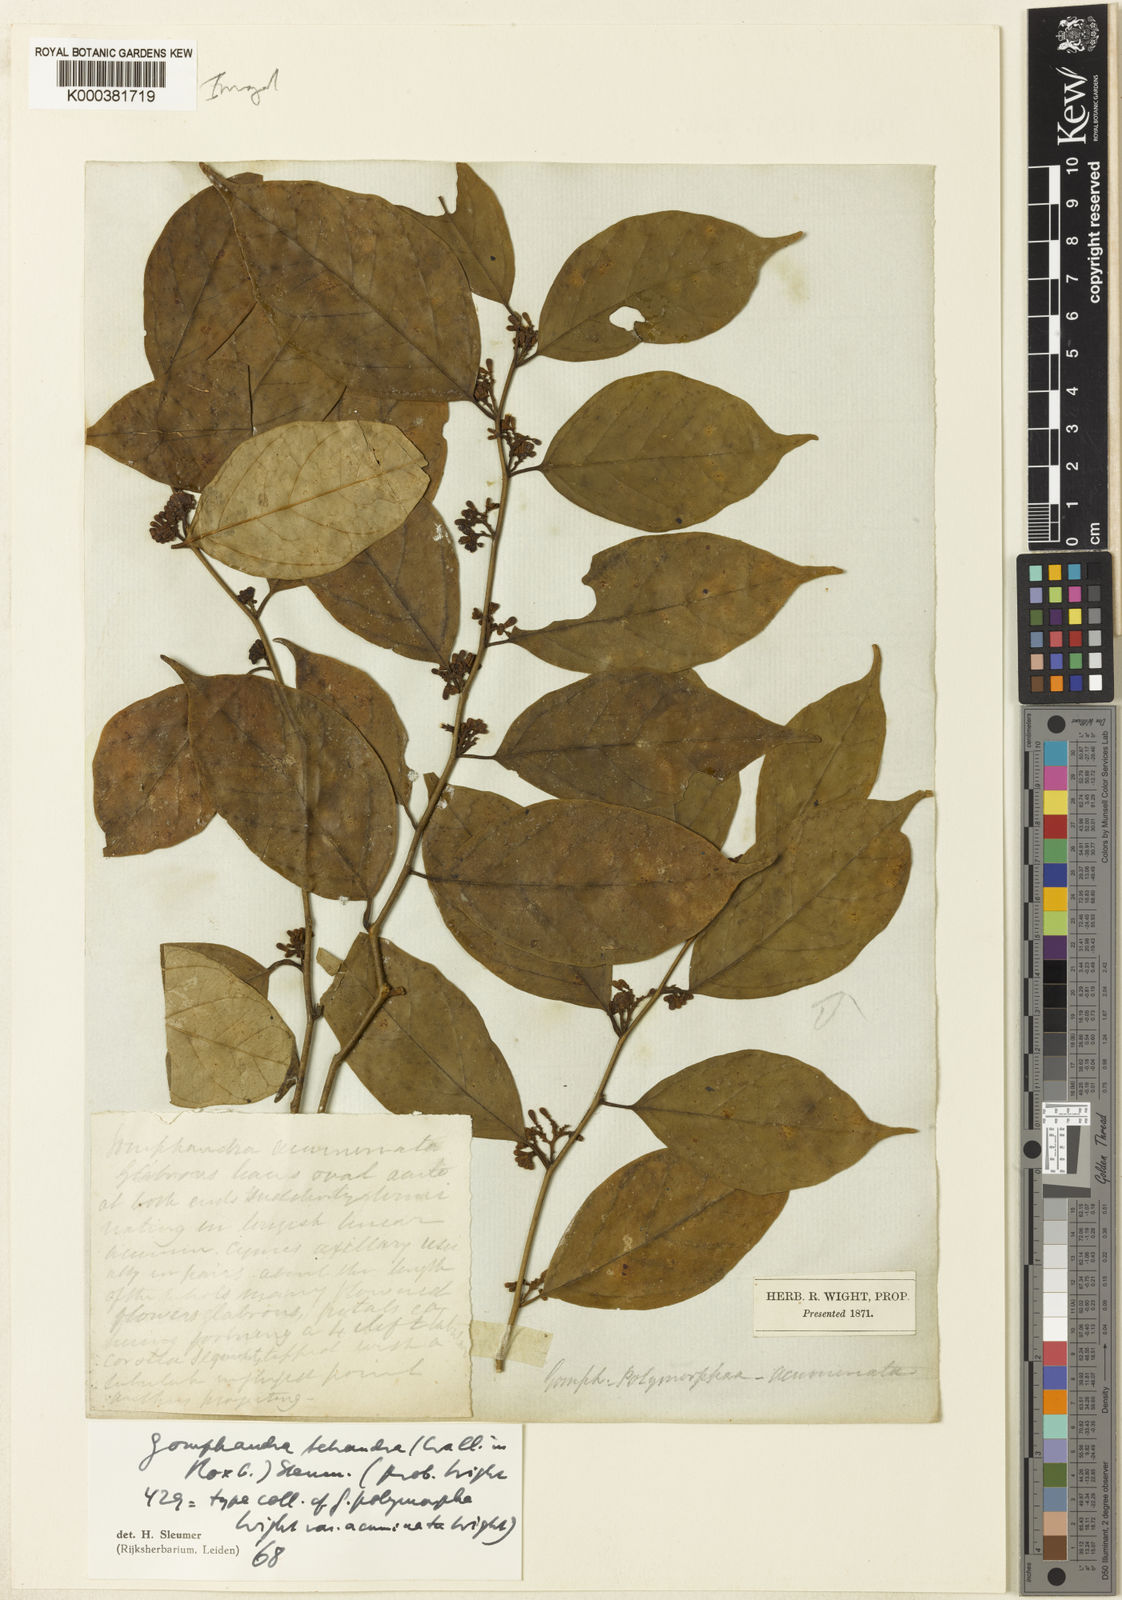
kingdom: Plantae
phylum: Tracheophyta
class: Magnoliopsida
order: Cardiopteridales
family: Stemonuraceae
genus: Gomphandra
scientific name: Gomphandra tetrandra
